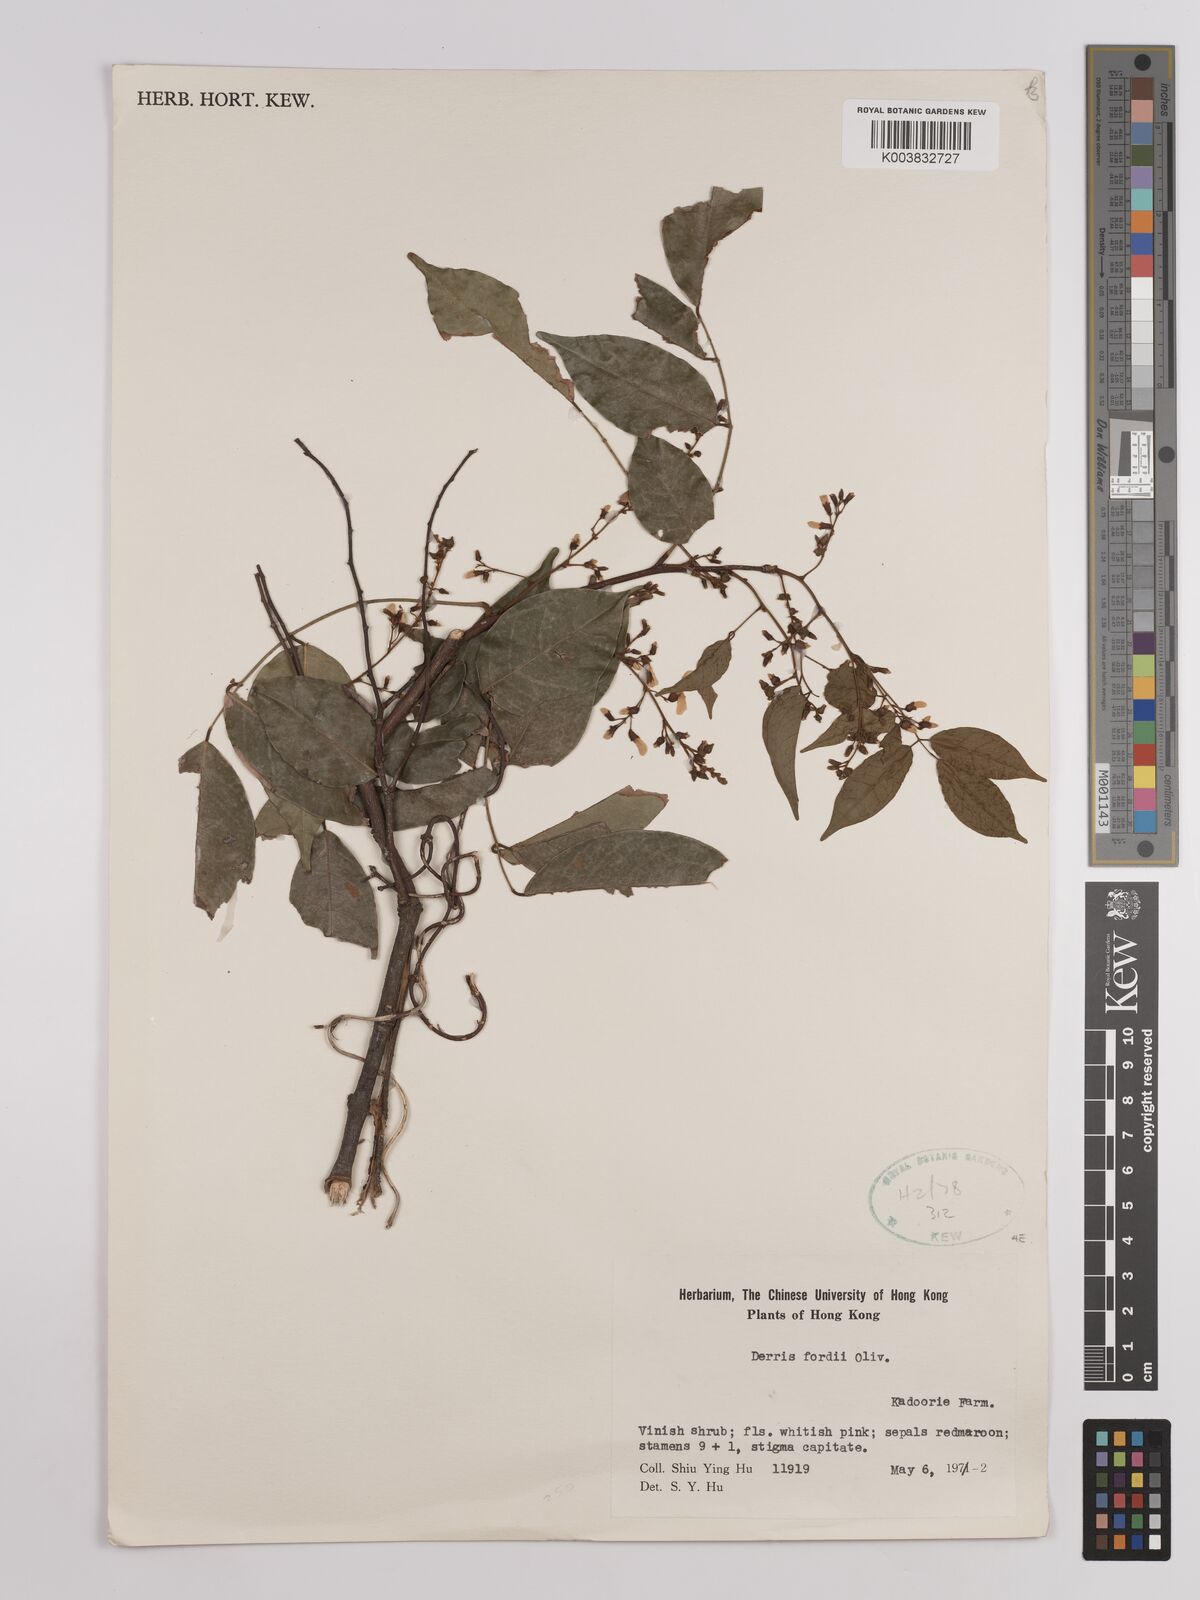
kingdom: Plantae
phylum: Tracheophyta
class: Magnoliopsida
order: Fabales
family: Fabaceae
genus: Derris
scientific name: Derris fordii
